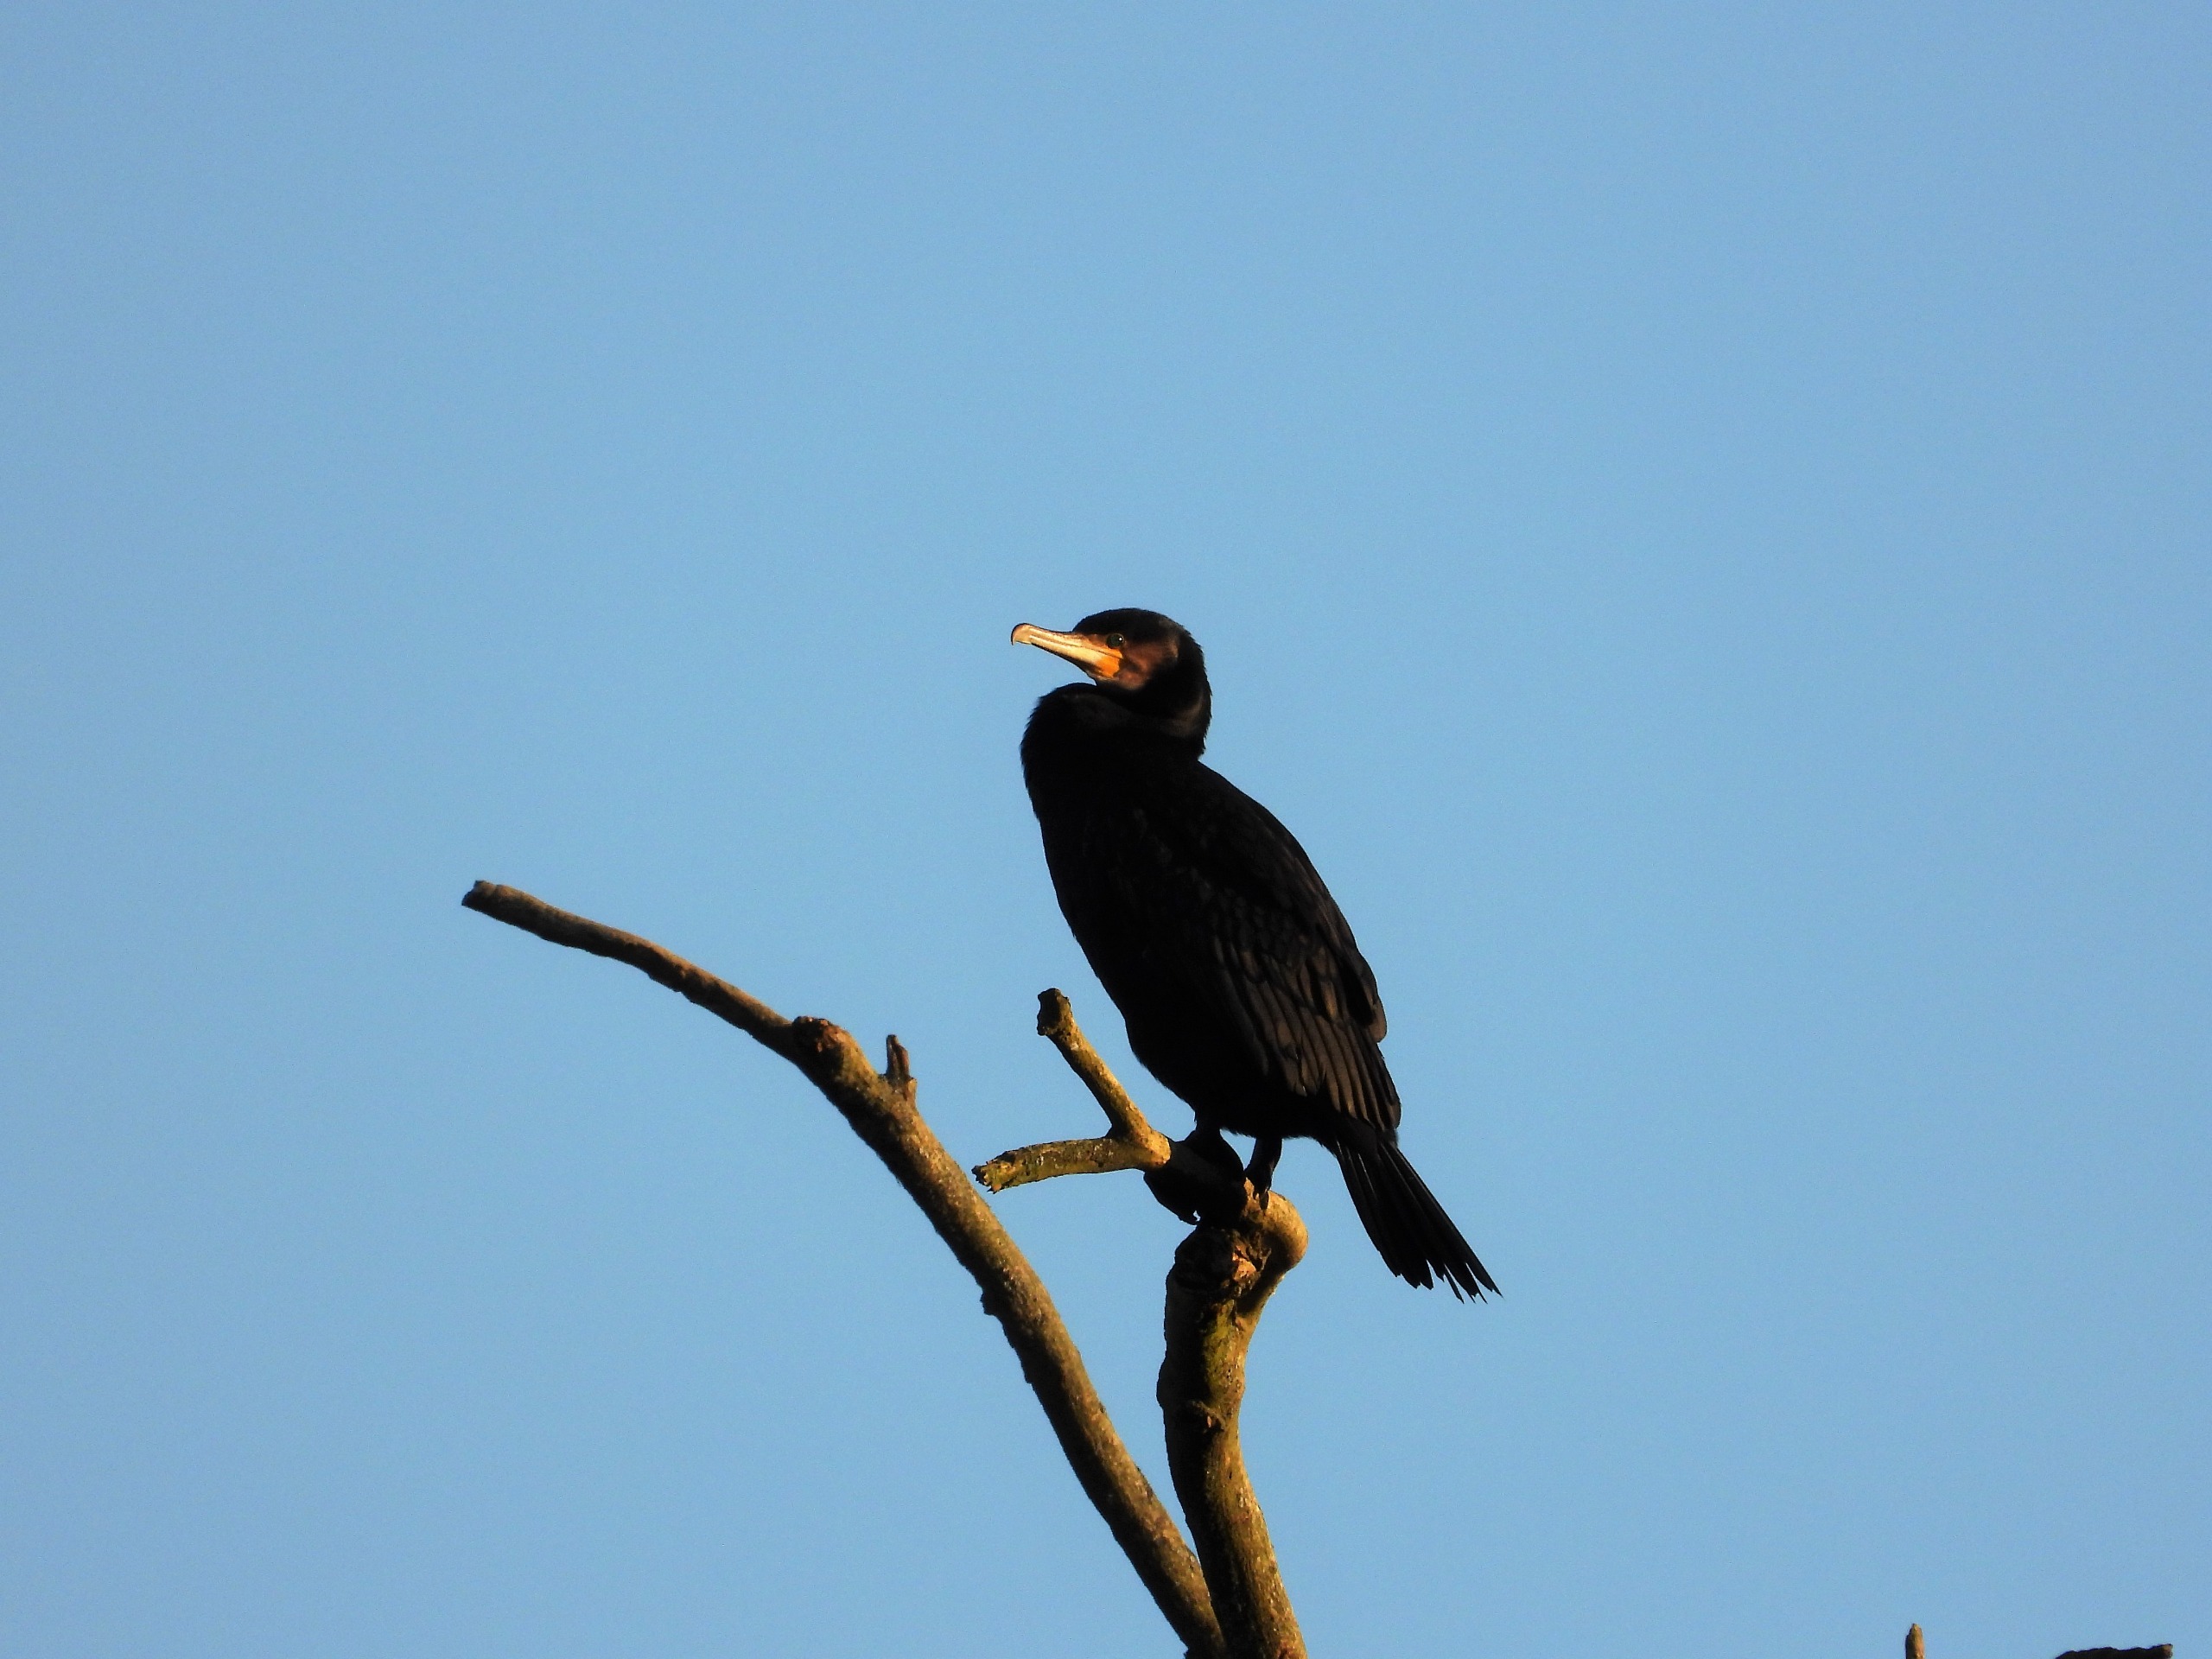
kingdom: Animalia
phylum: Chordata
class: Aves
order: Suliformes
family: Phalacrocoracidae
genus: Phalacrocorax
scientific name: Phalacrocorax carbo
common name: Skarv
